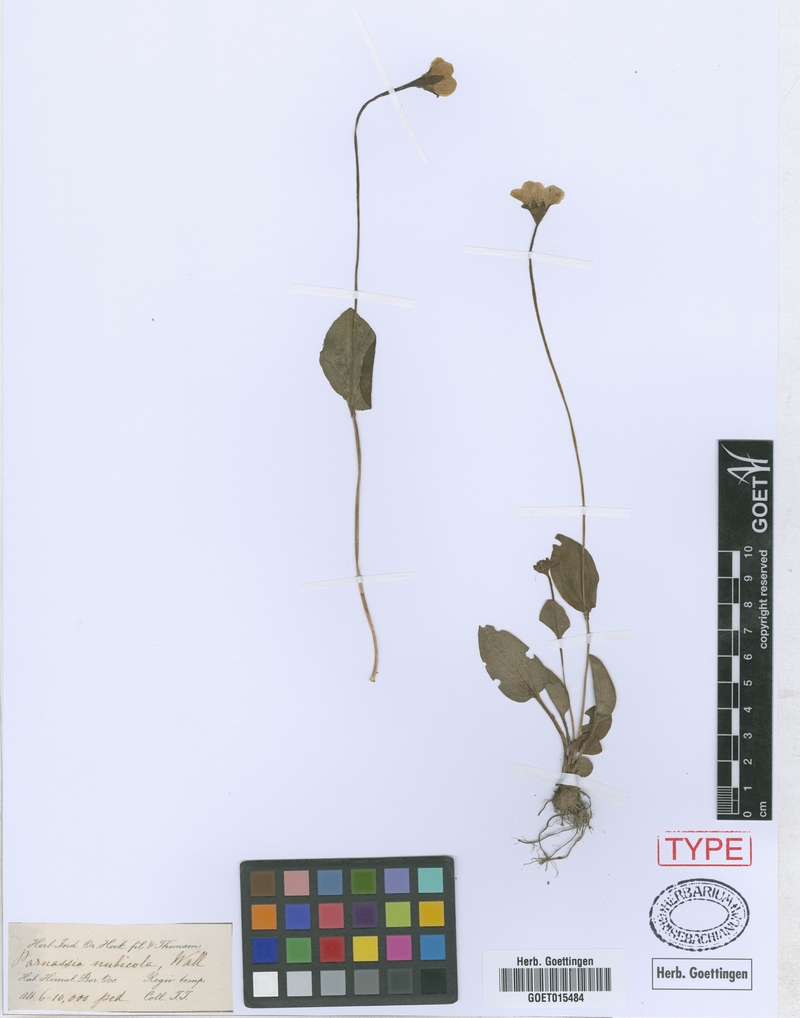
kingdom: Plantae
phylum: Tracheophyta
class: Magnoliopsida
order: Celastrales
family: Parnassiaceae
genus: Parnassia
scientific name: Parnassia nubicola
